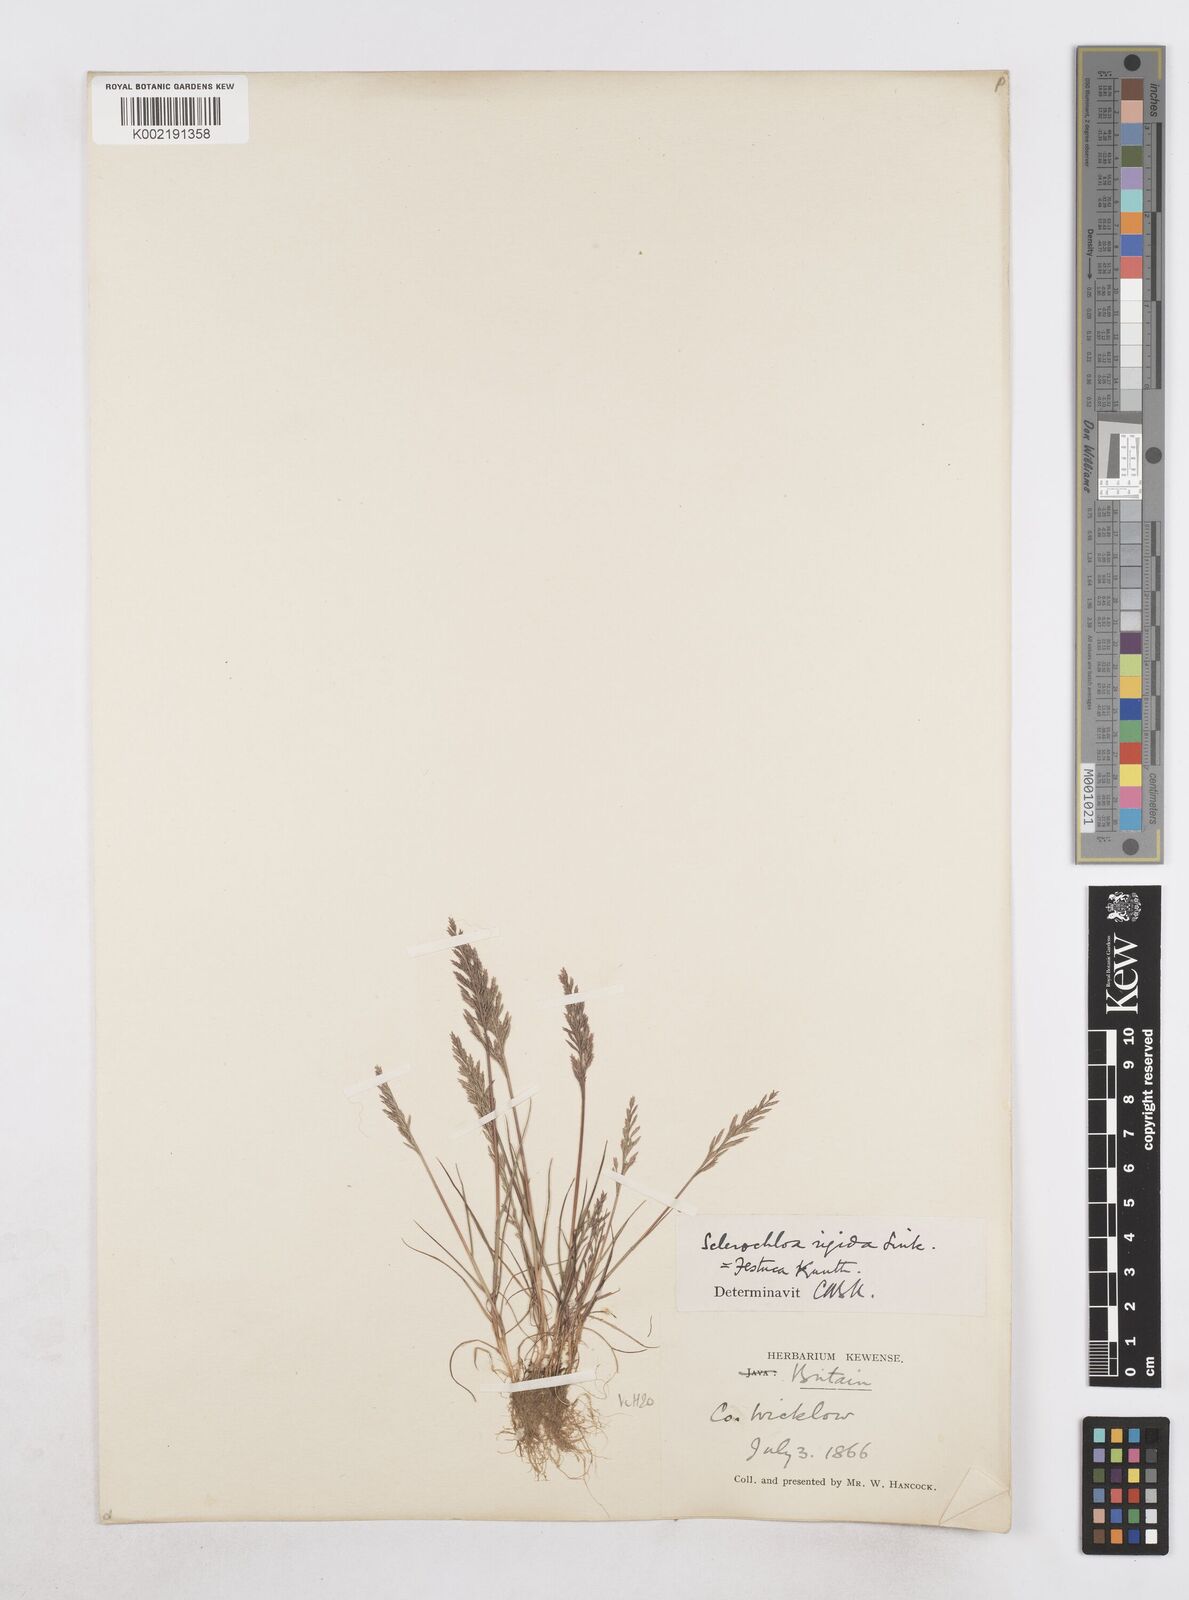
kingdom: Plantae
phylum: Tracheophyta
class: Liliopsida
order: Poales
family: Poaceae
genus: Catapodium
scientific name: Catapodium rigidum
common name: Fern-grass
